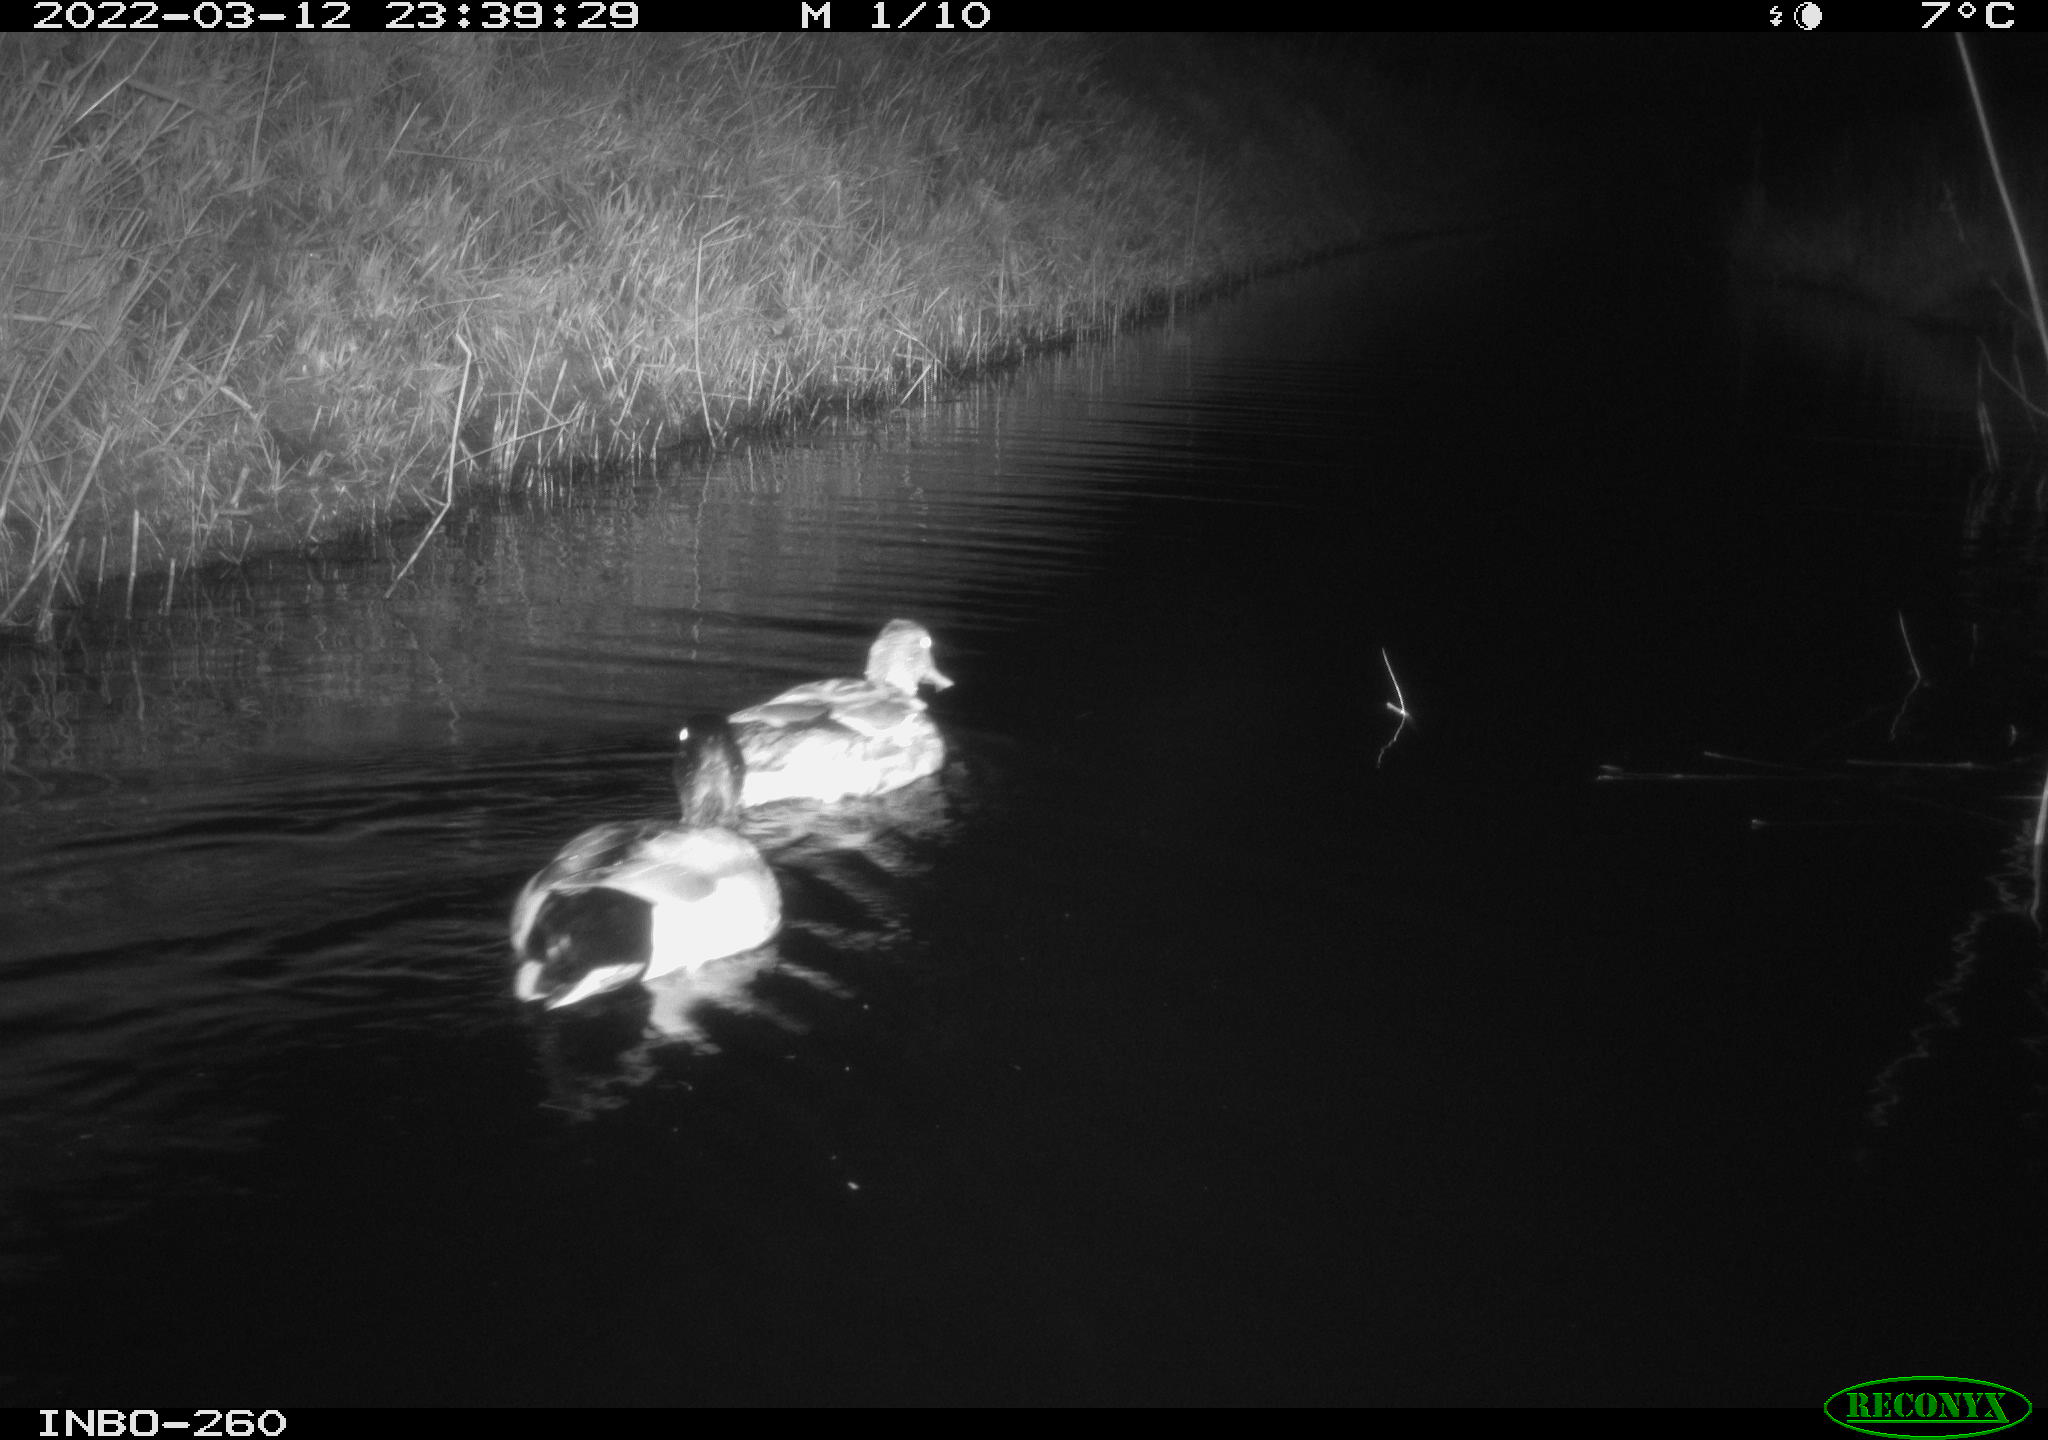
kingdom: Animalia
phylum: Chordata
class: Aves
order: Anseriformes
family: Anatidae
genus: Anas
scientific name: Anas platyrhynchos
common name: Mallard
